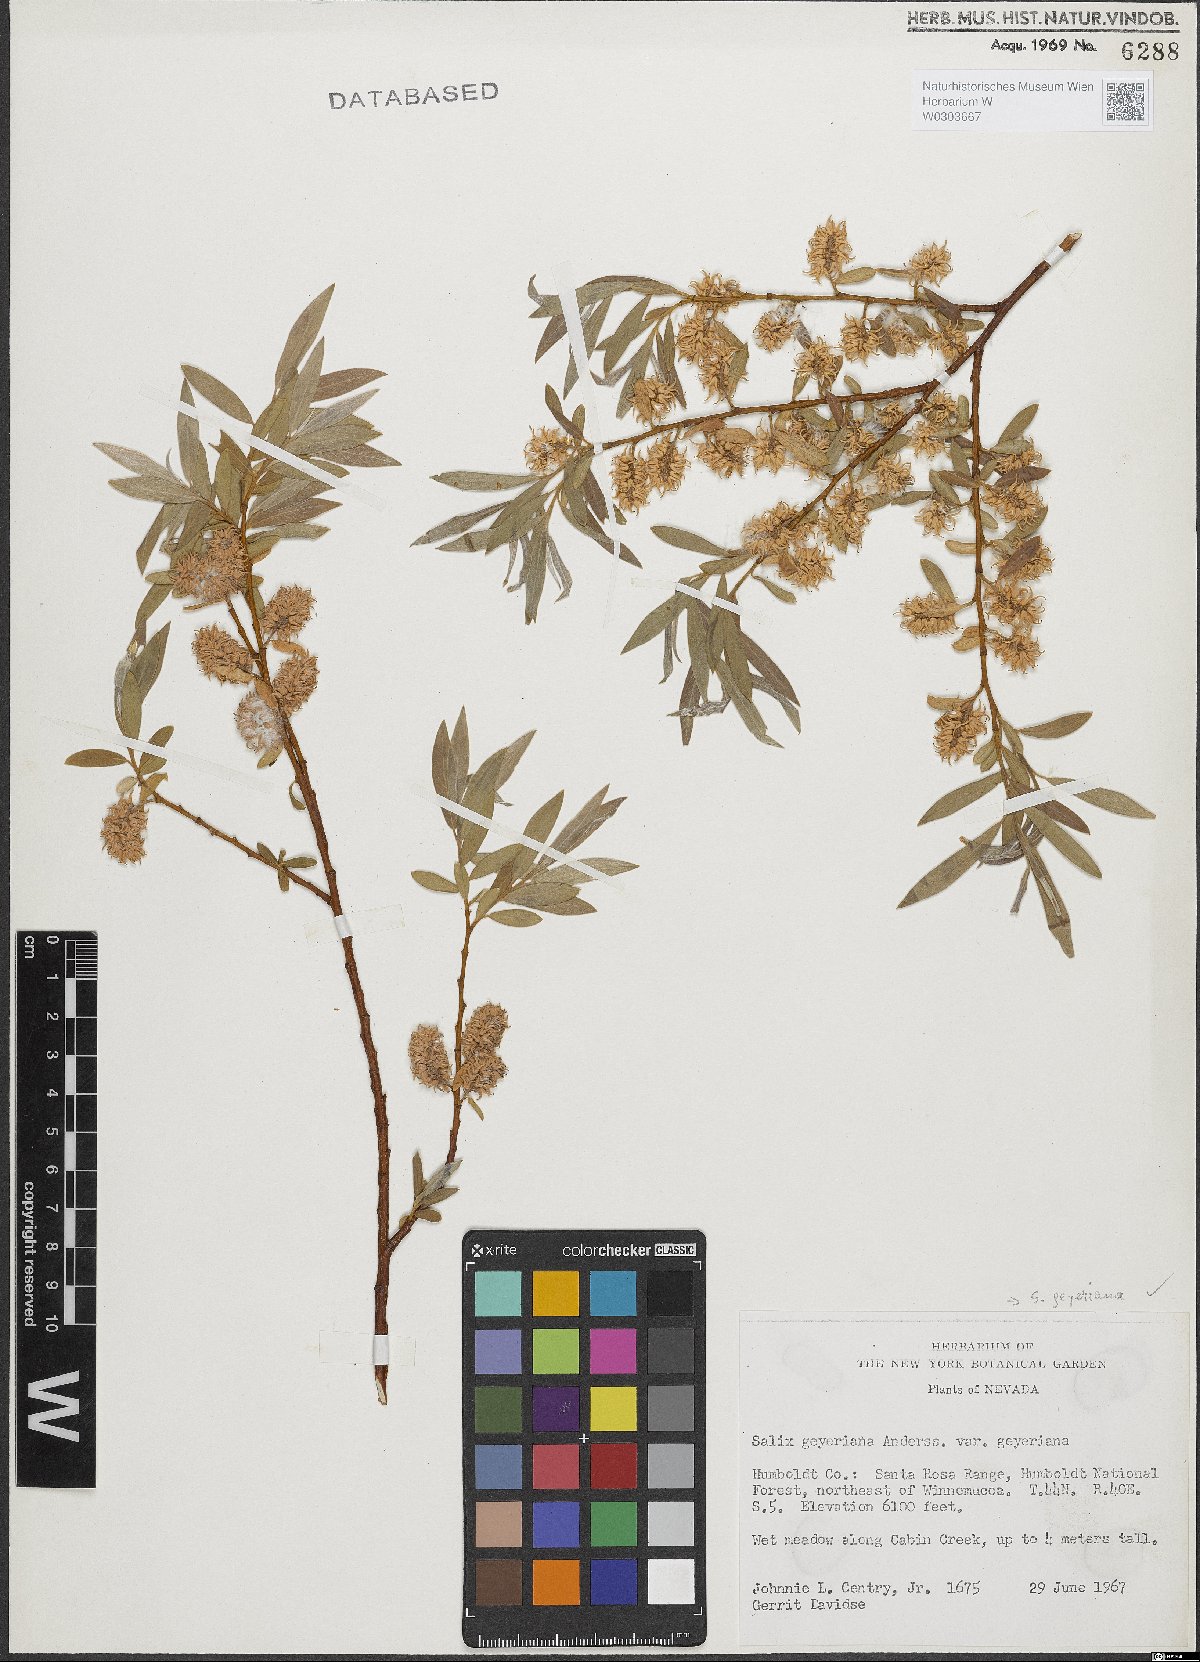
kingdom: Plantae
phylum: Tracheophyta
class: Magnoliopsida
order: Malpighiales
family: Salicaceae
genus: Salix
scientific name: Salix geyeriana
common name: Geyer's willow
